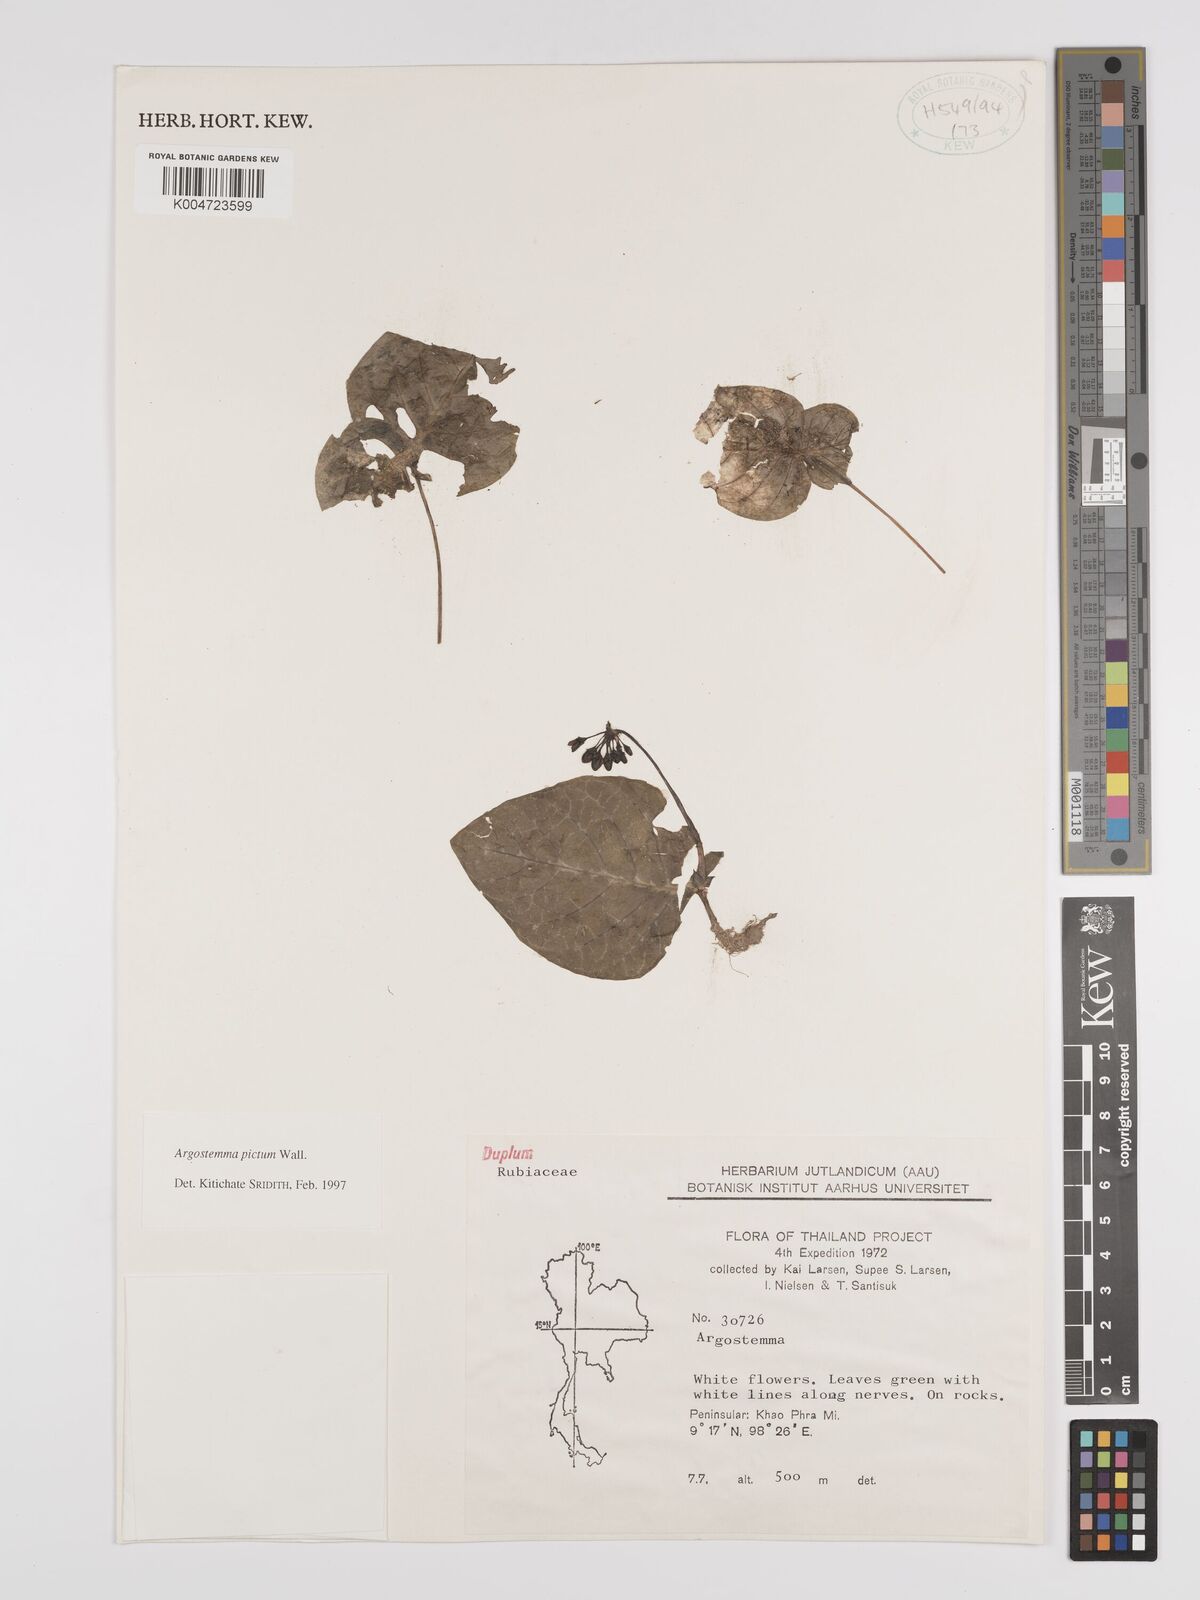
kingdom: Plantae
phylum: Tracheophyta
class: Magnoliopsida
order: Gentianales
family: Rubiaceae
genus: Argostemma
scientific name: Argostemma
